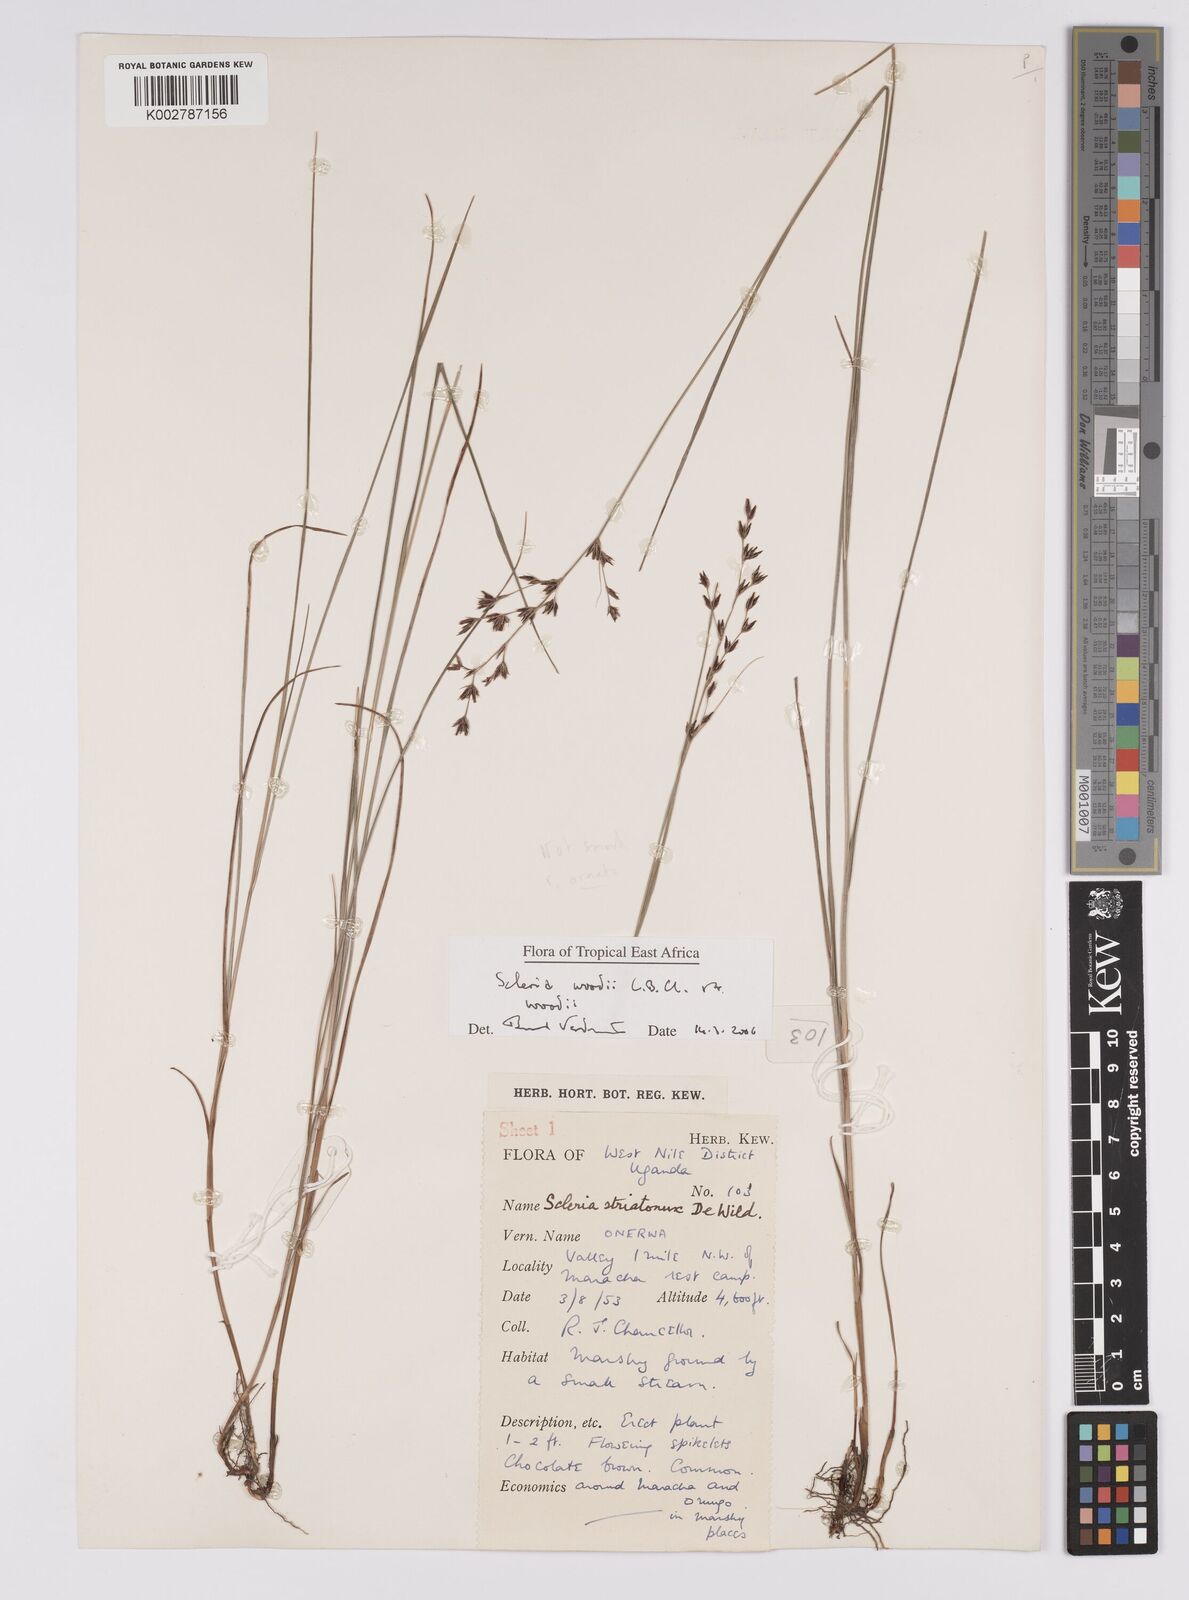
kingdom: Plantae
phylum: Tracheophyta
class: Liliopsida
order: Poales
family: Cyperaceae
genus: Scleria
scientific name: Scleria woodii
